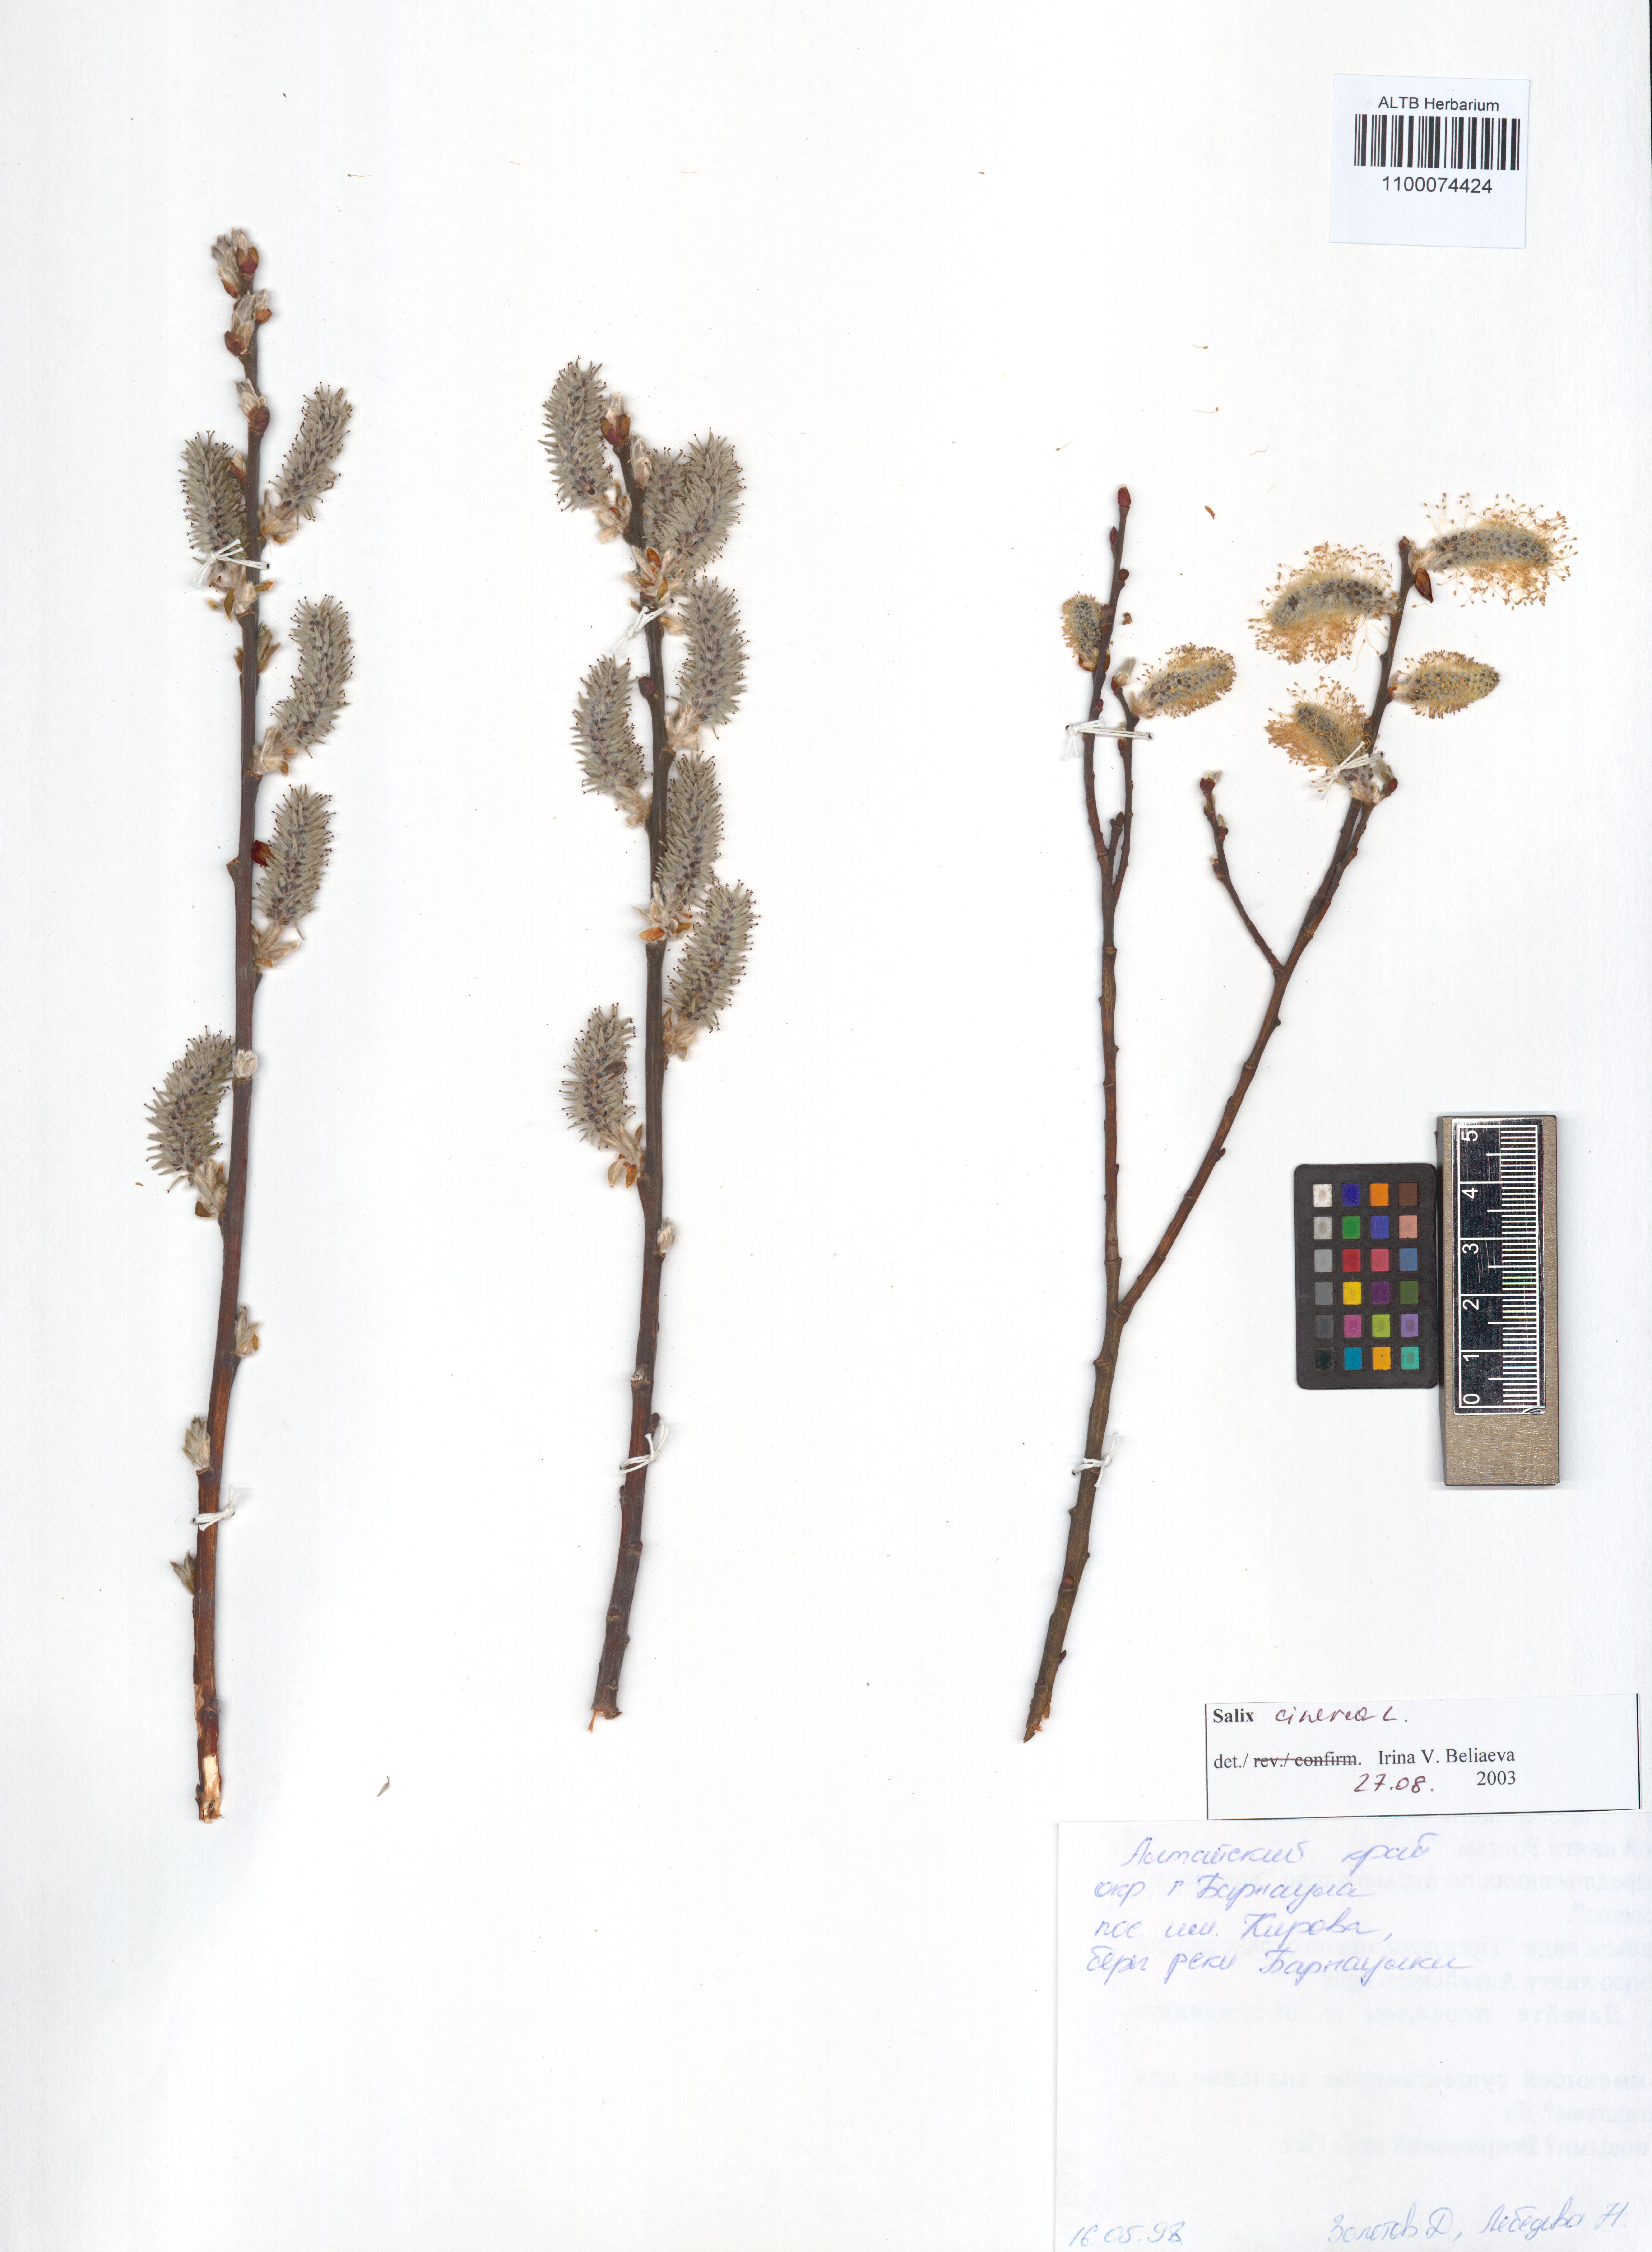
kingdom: Plantae
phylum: Tracheophyta
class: Magnoliopsida
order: Malpighiales
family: Salicaceae
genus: Salix
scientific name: Salix cinerea
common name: Common sallow
